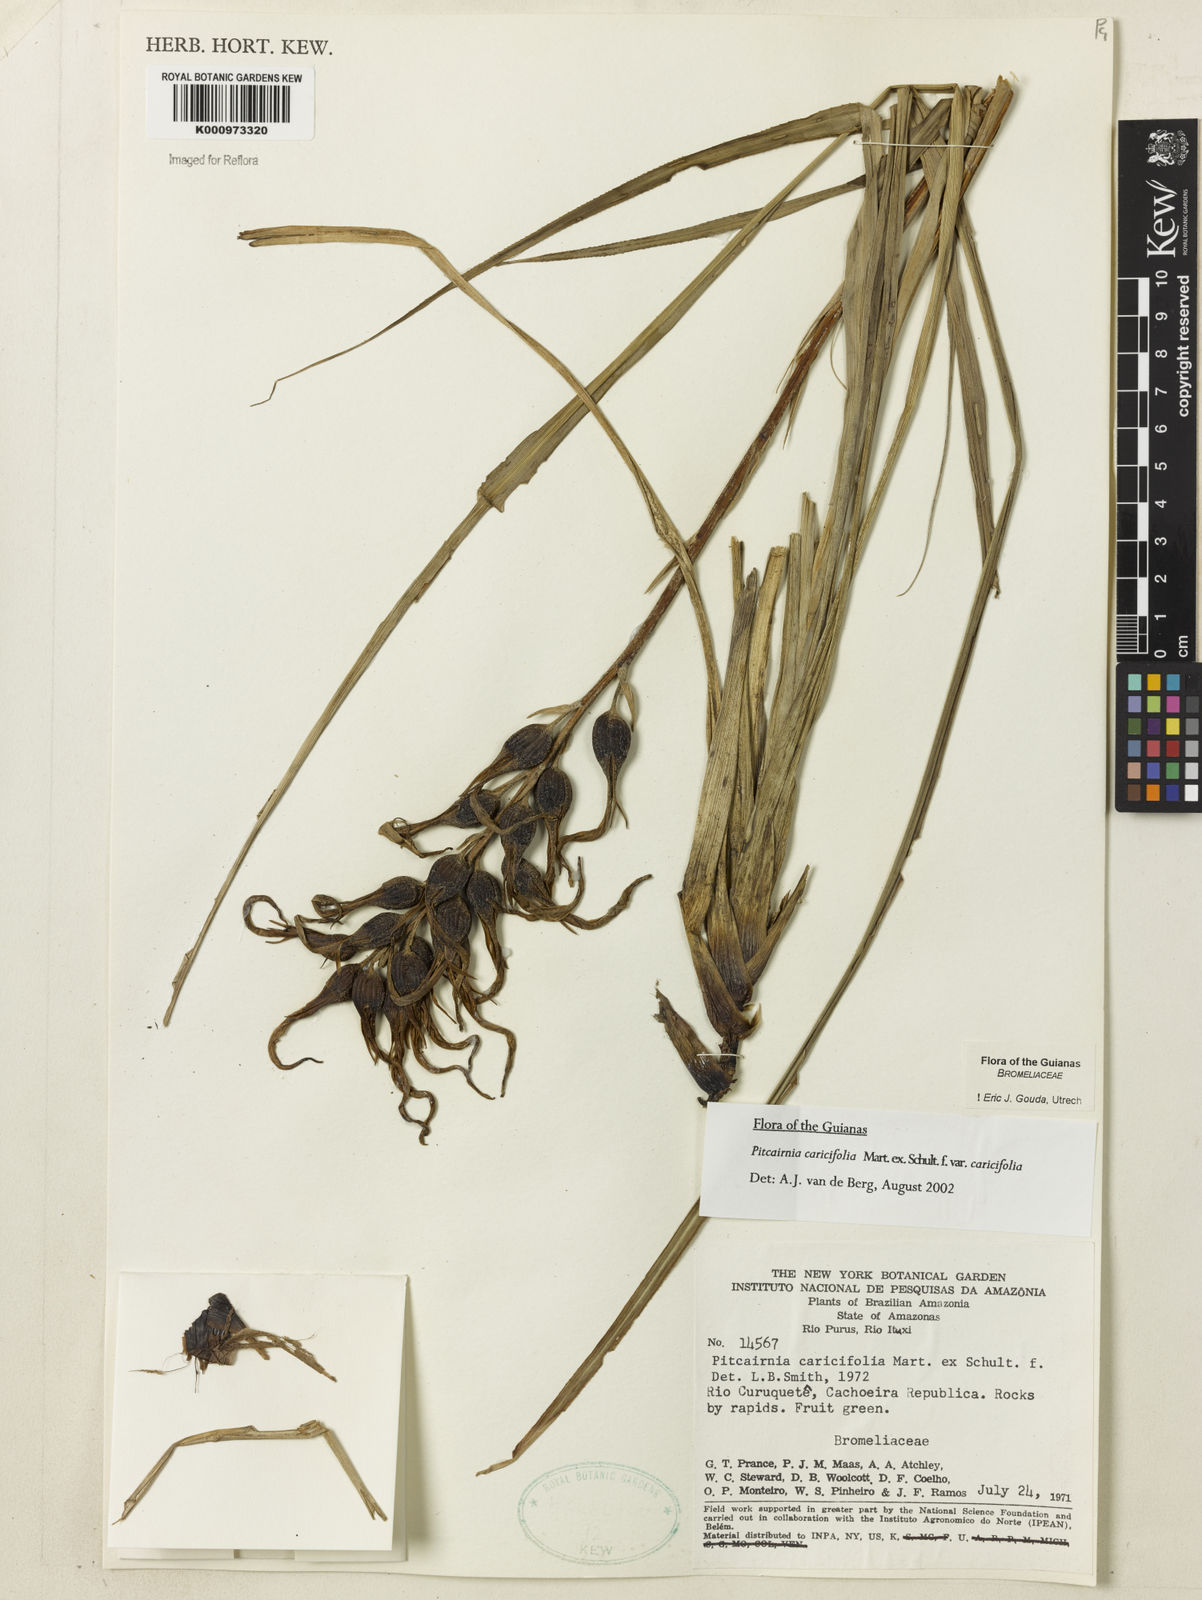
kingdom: Plantae
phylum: Tracheophyta
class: Liliopsida
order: Poales
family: Bromeliaceae
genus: Pitcairnia
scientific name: Pitcairnia
